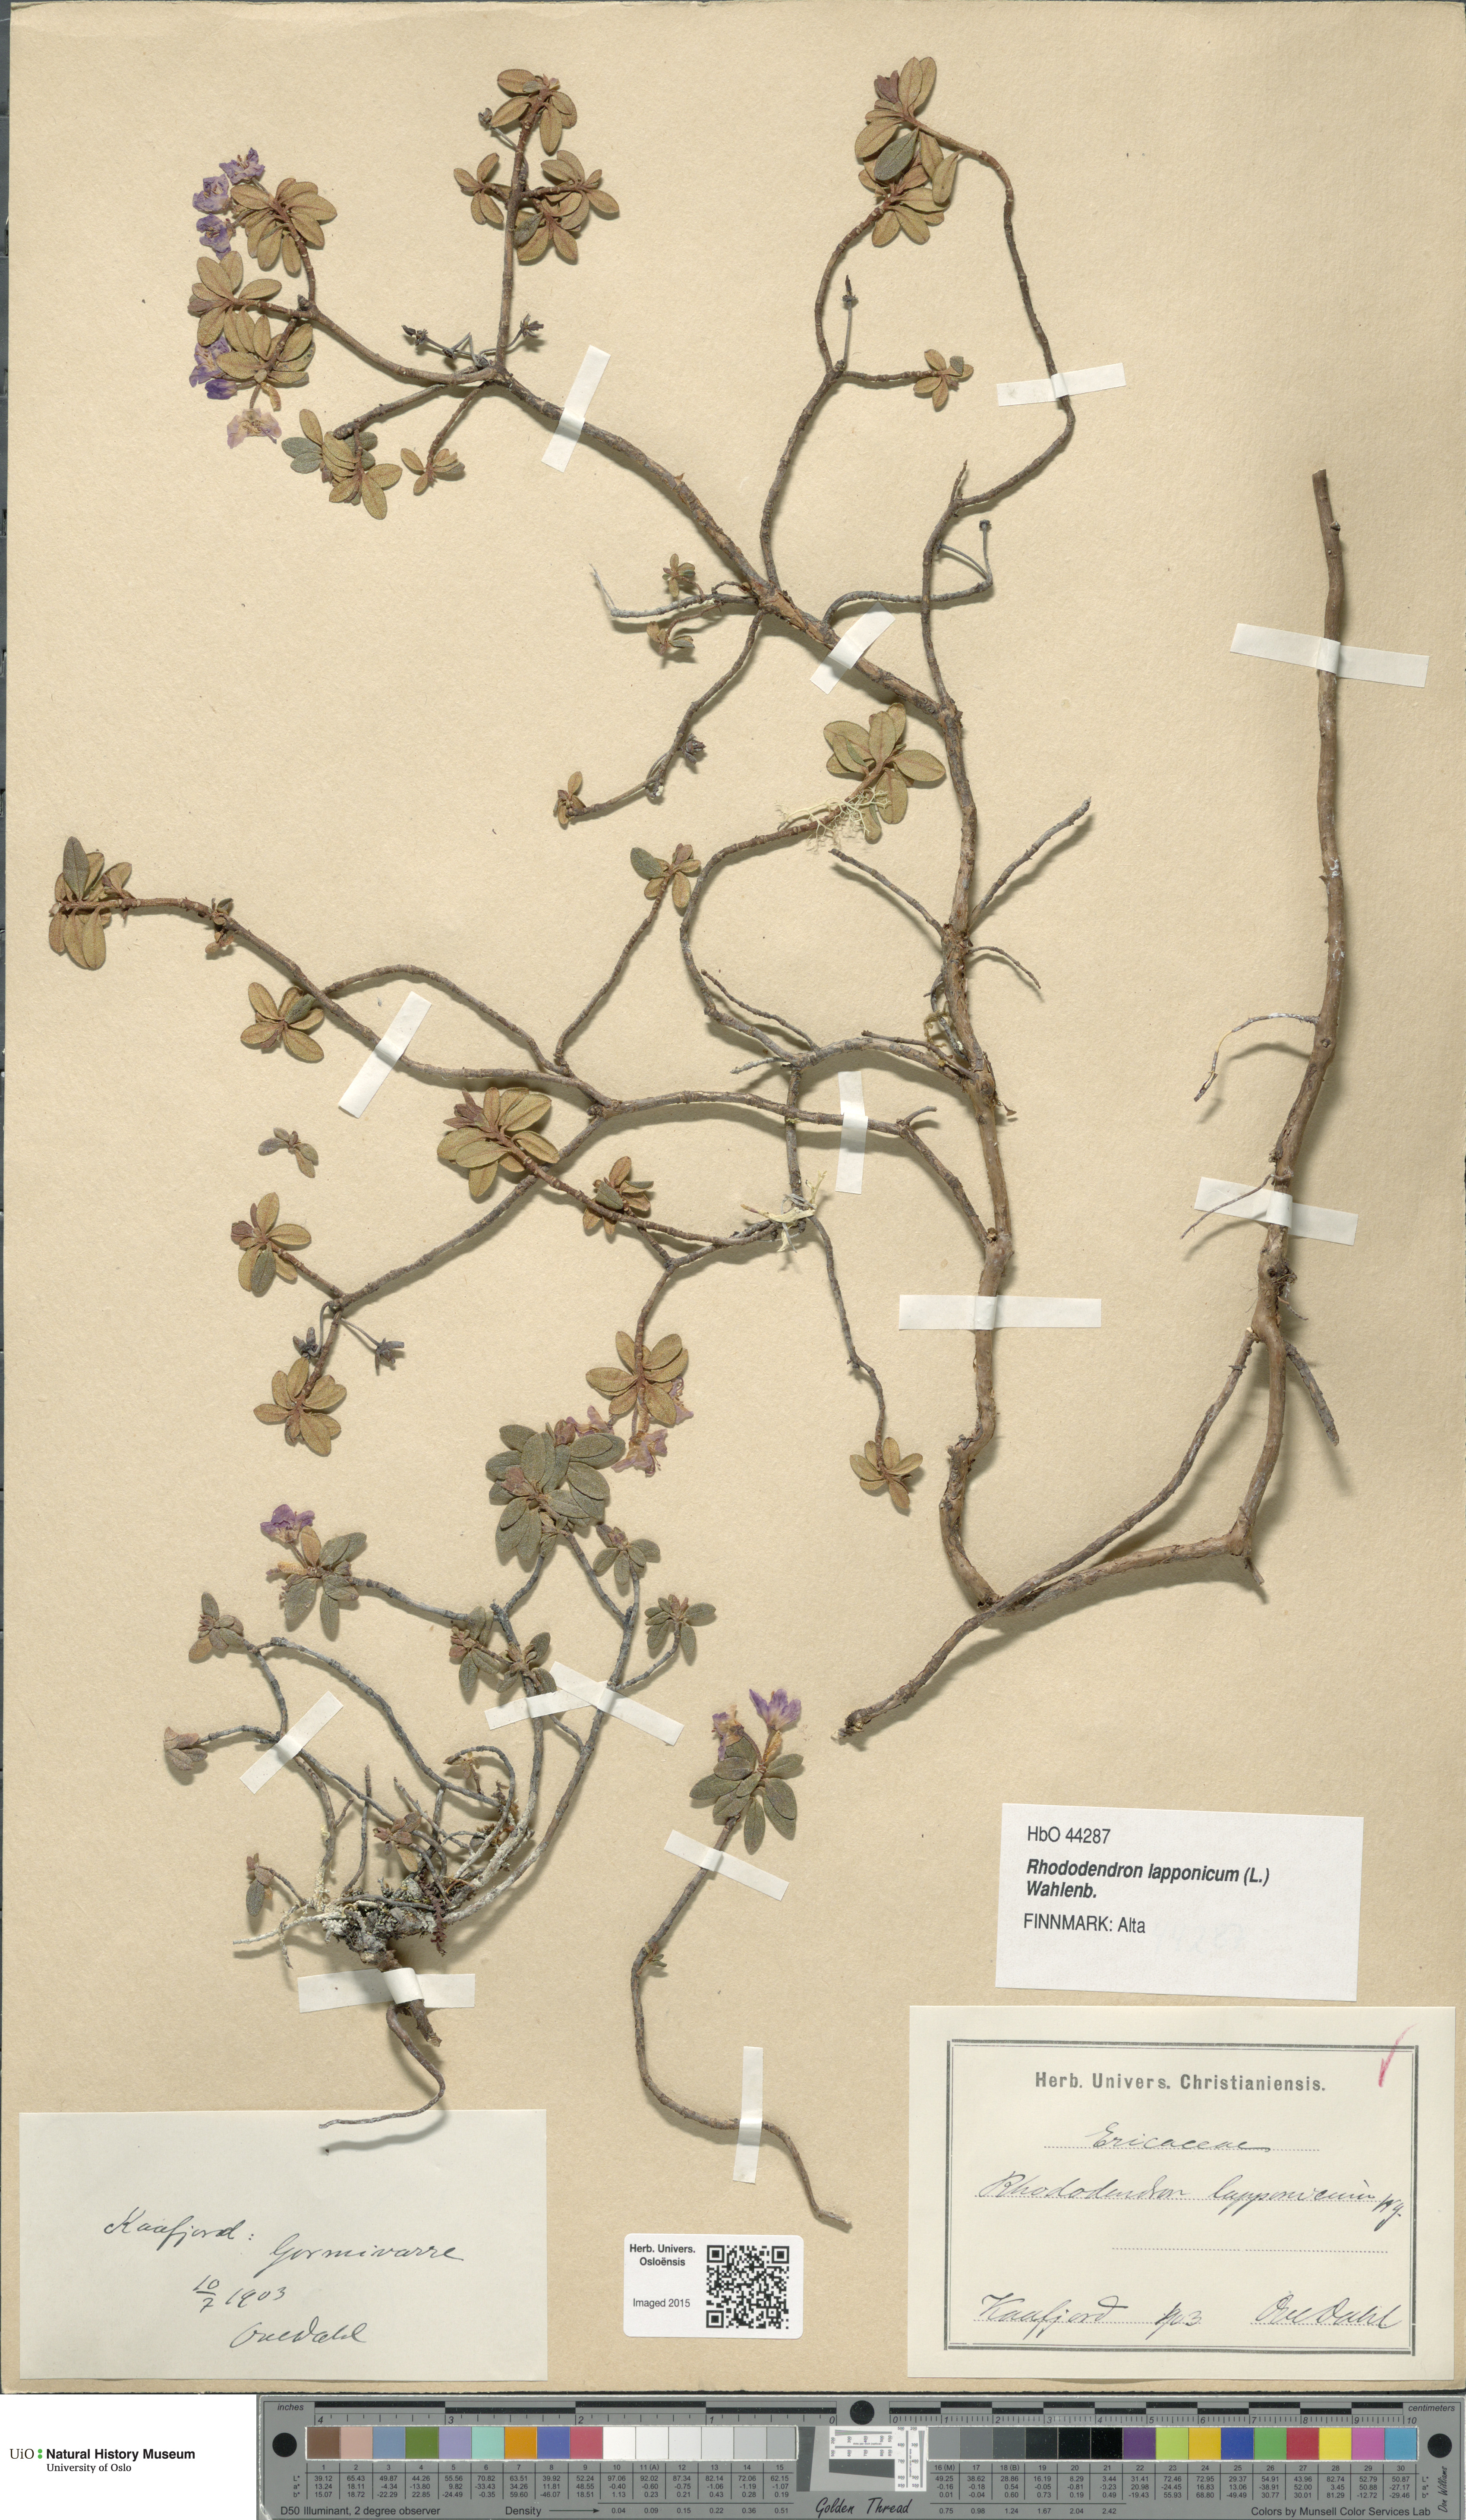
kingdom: Plantae
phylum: Tracheophyta
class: Magnoliopsida
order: Ericales
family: Ericaceae
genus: Rhododendron
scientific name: Rhododendron lapponicum
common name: Lapland rhododendron
